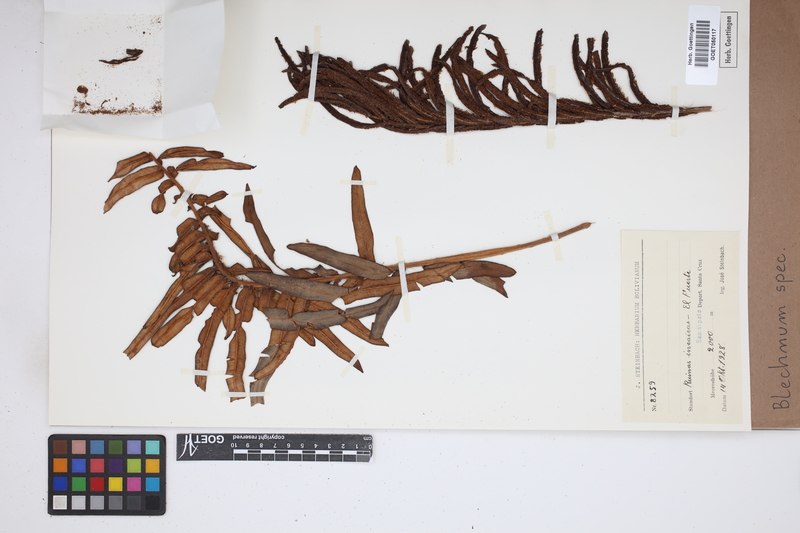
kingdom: Plantae
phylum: Tracheophyta
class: Polypodiopsida
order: Polypodiales
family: Blechnaceae
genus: Blechnum
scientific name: Blechnum
